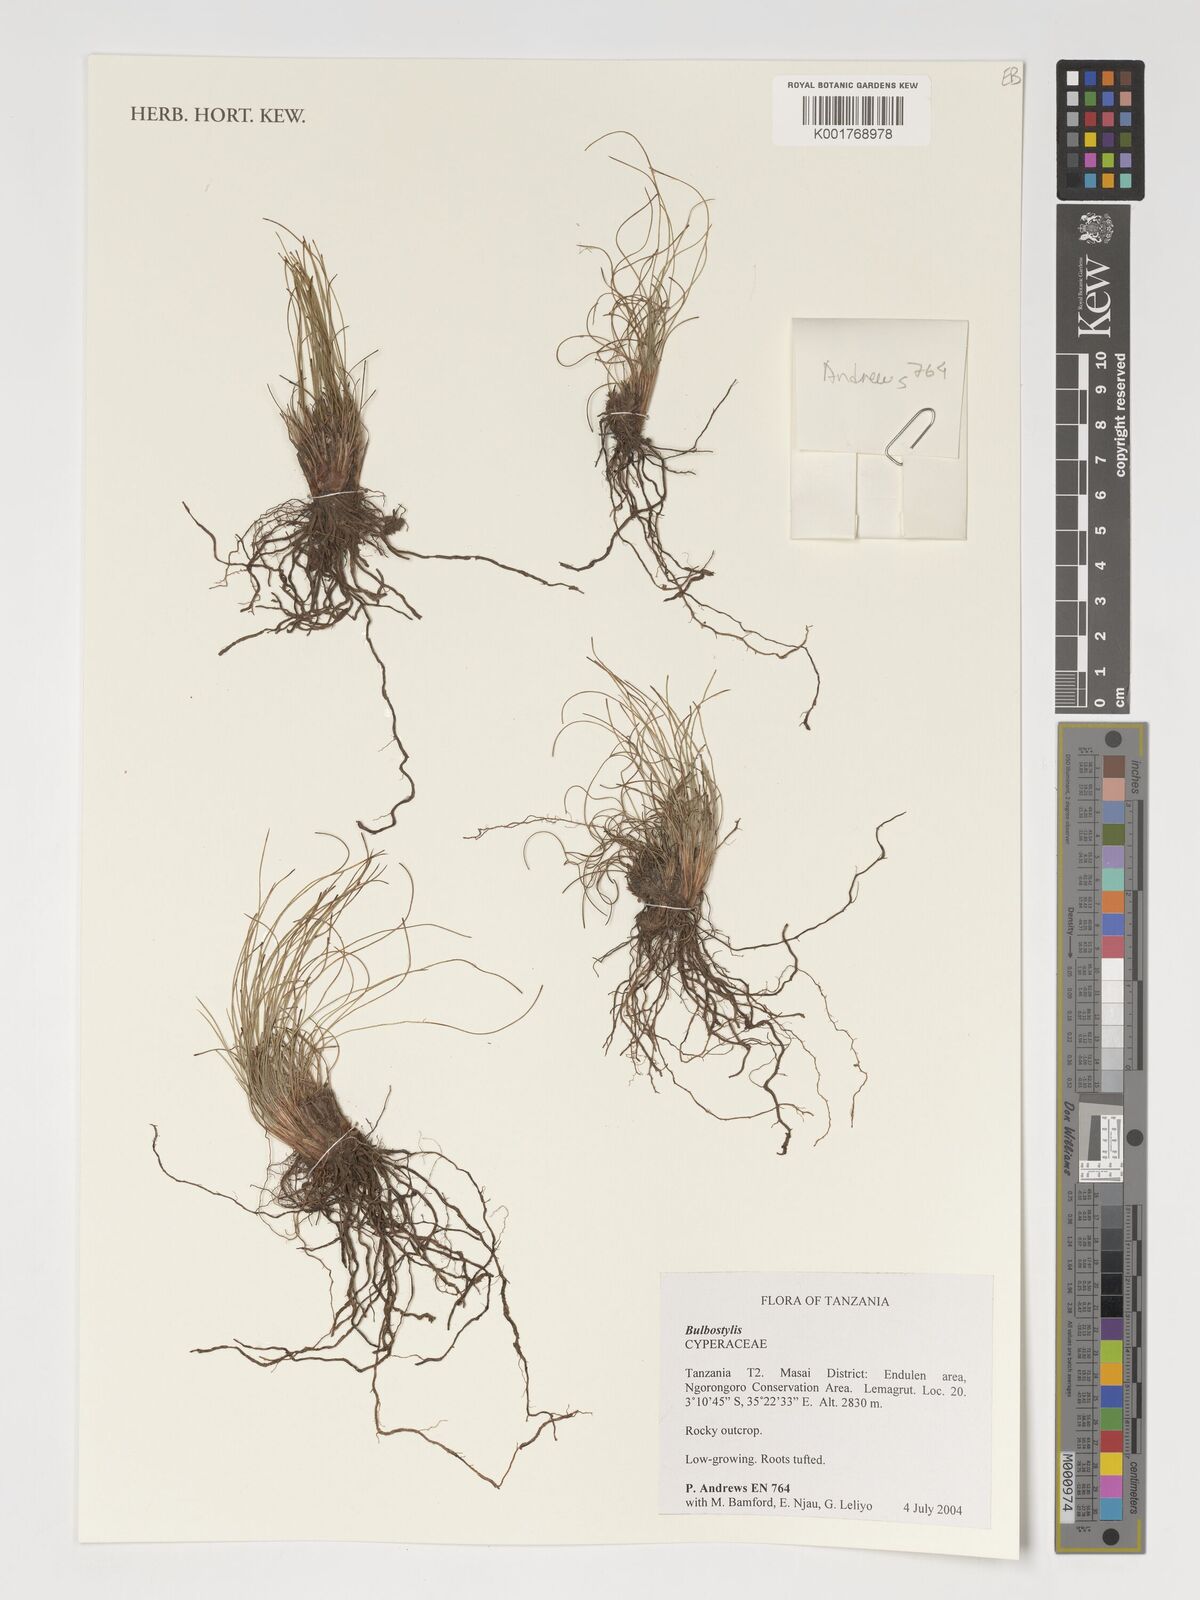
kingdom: Plantae
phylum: Tracheophyta
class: Liliopsida
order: Poales
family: Cyperaceae
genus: Bulbostylis
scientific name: Bulbostylis
